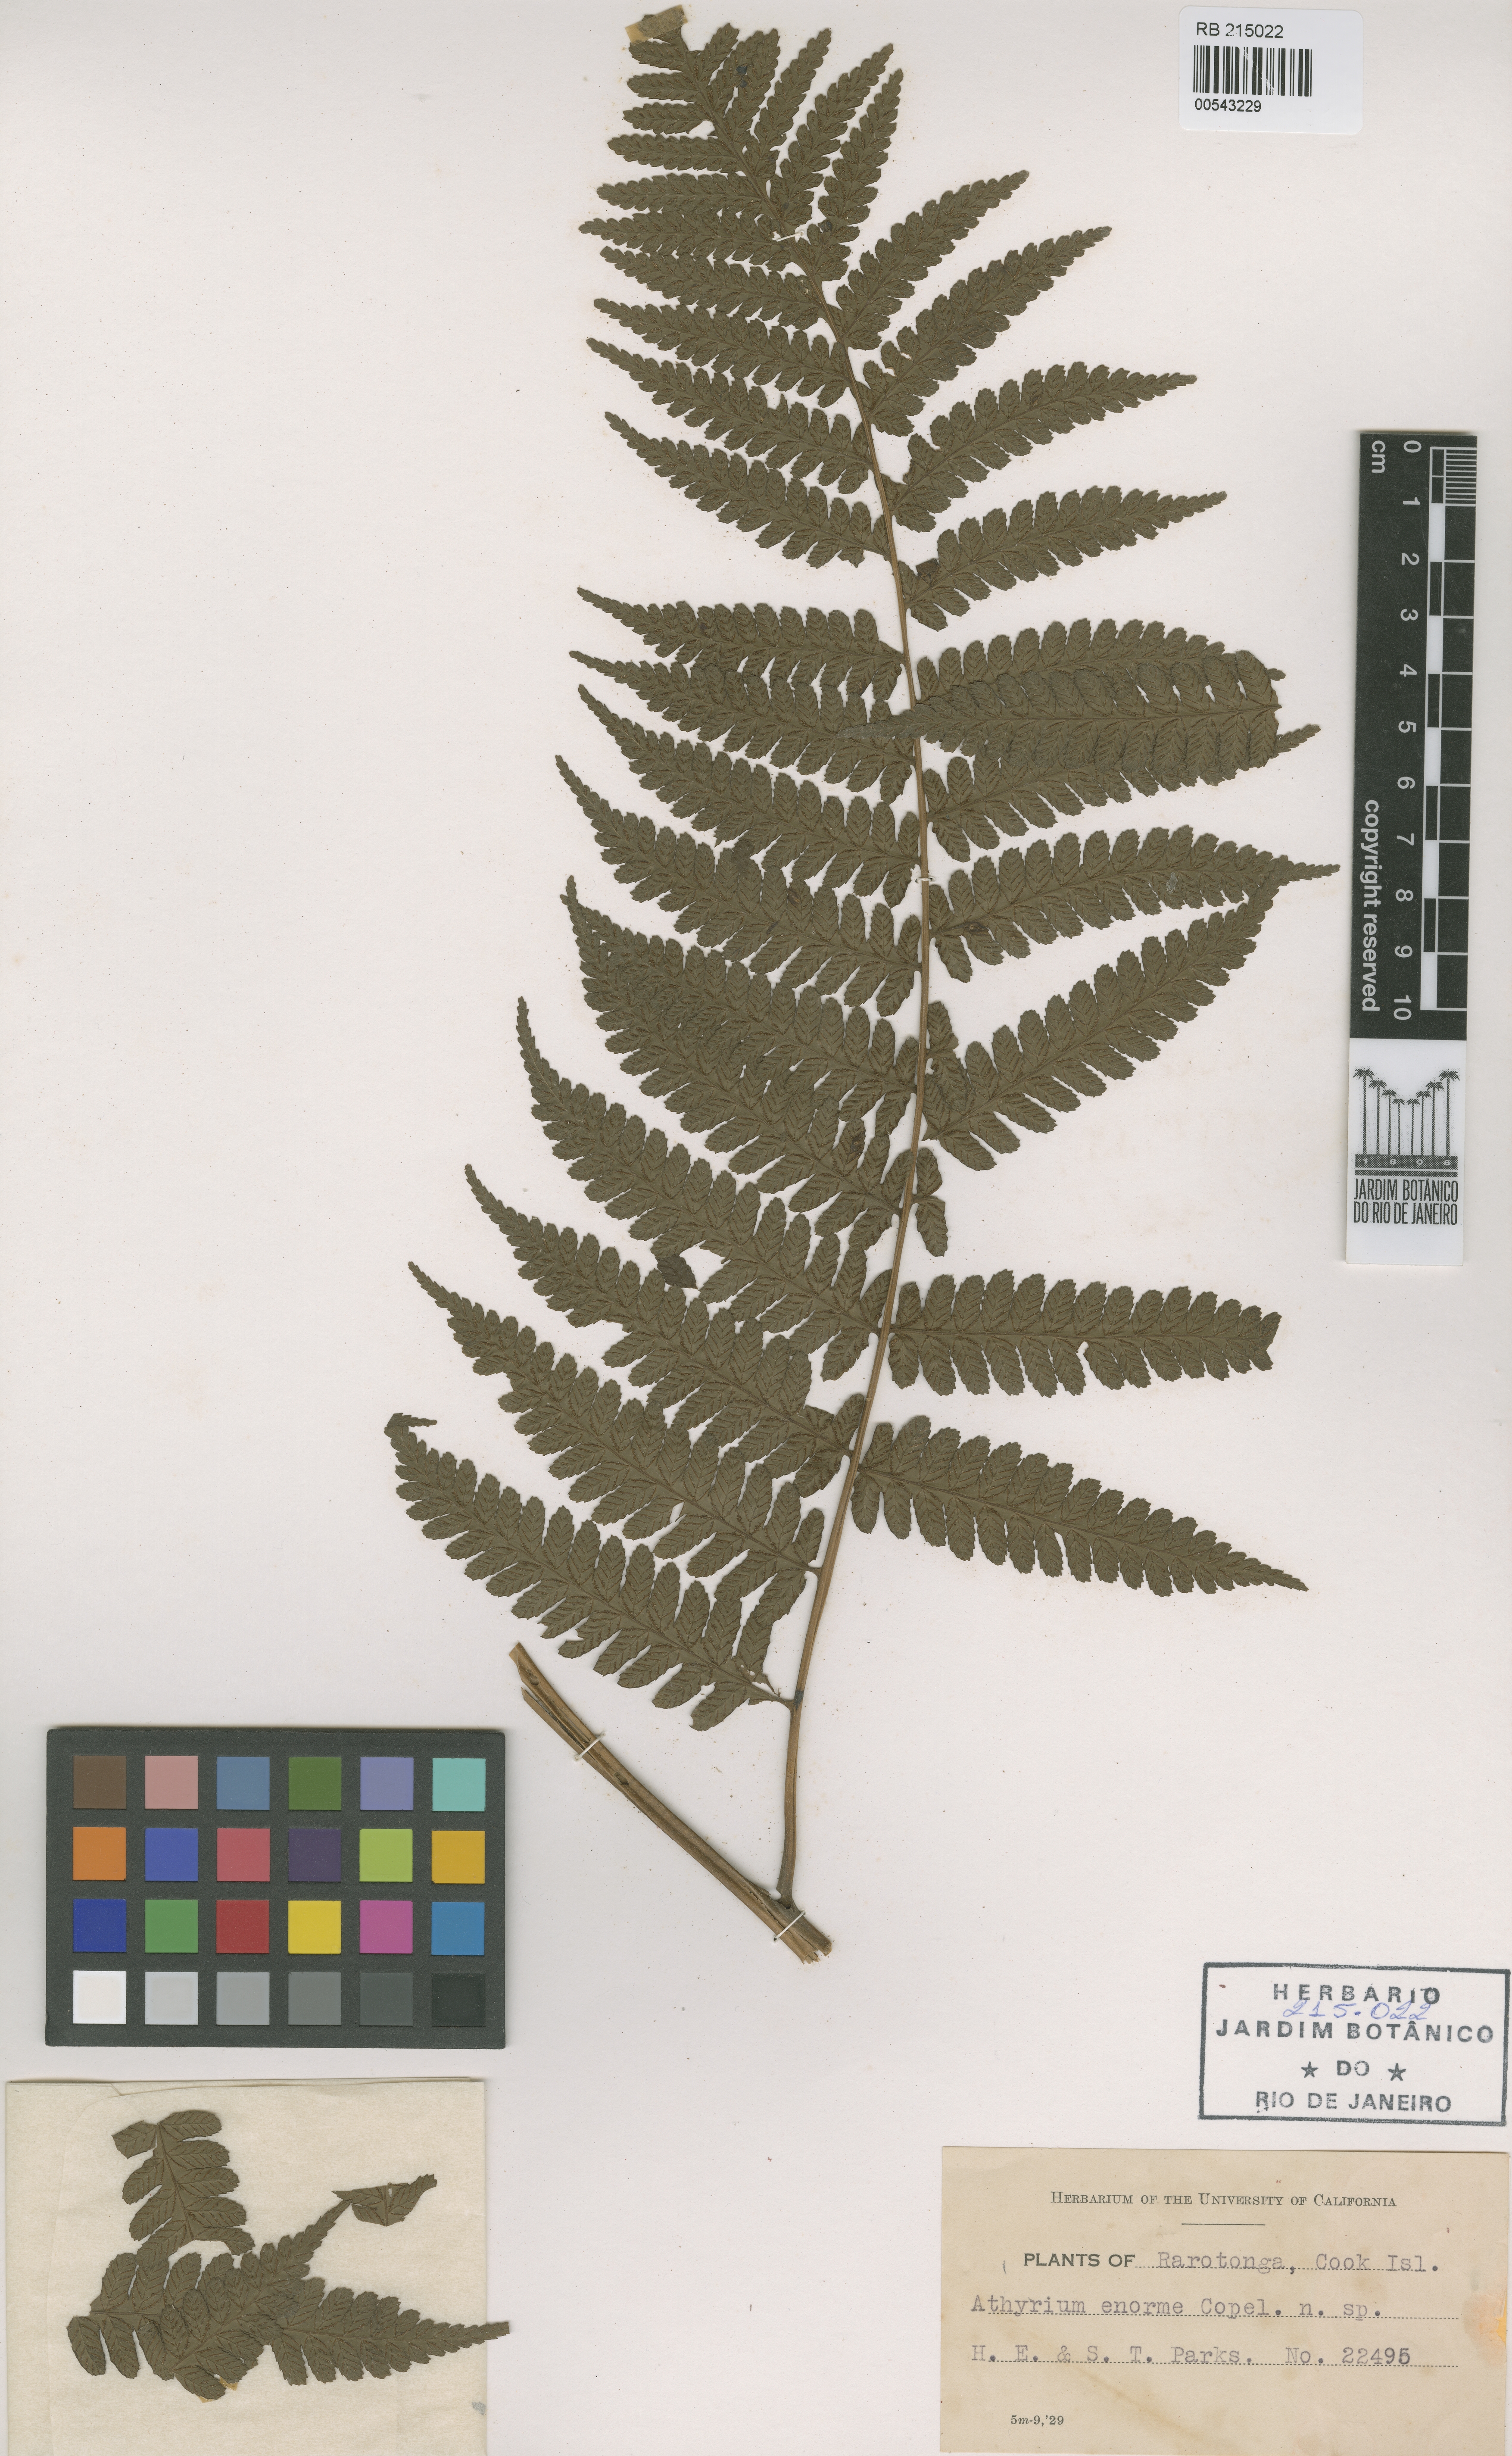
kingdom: Plantae
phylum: Tracheophyta
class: Polypodiopsida
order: Polypodiales
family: Athyriaceae
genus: Athyrium
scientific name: Athyrium enorme
